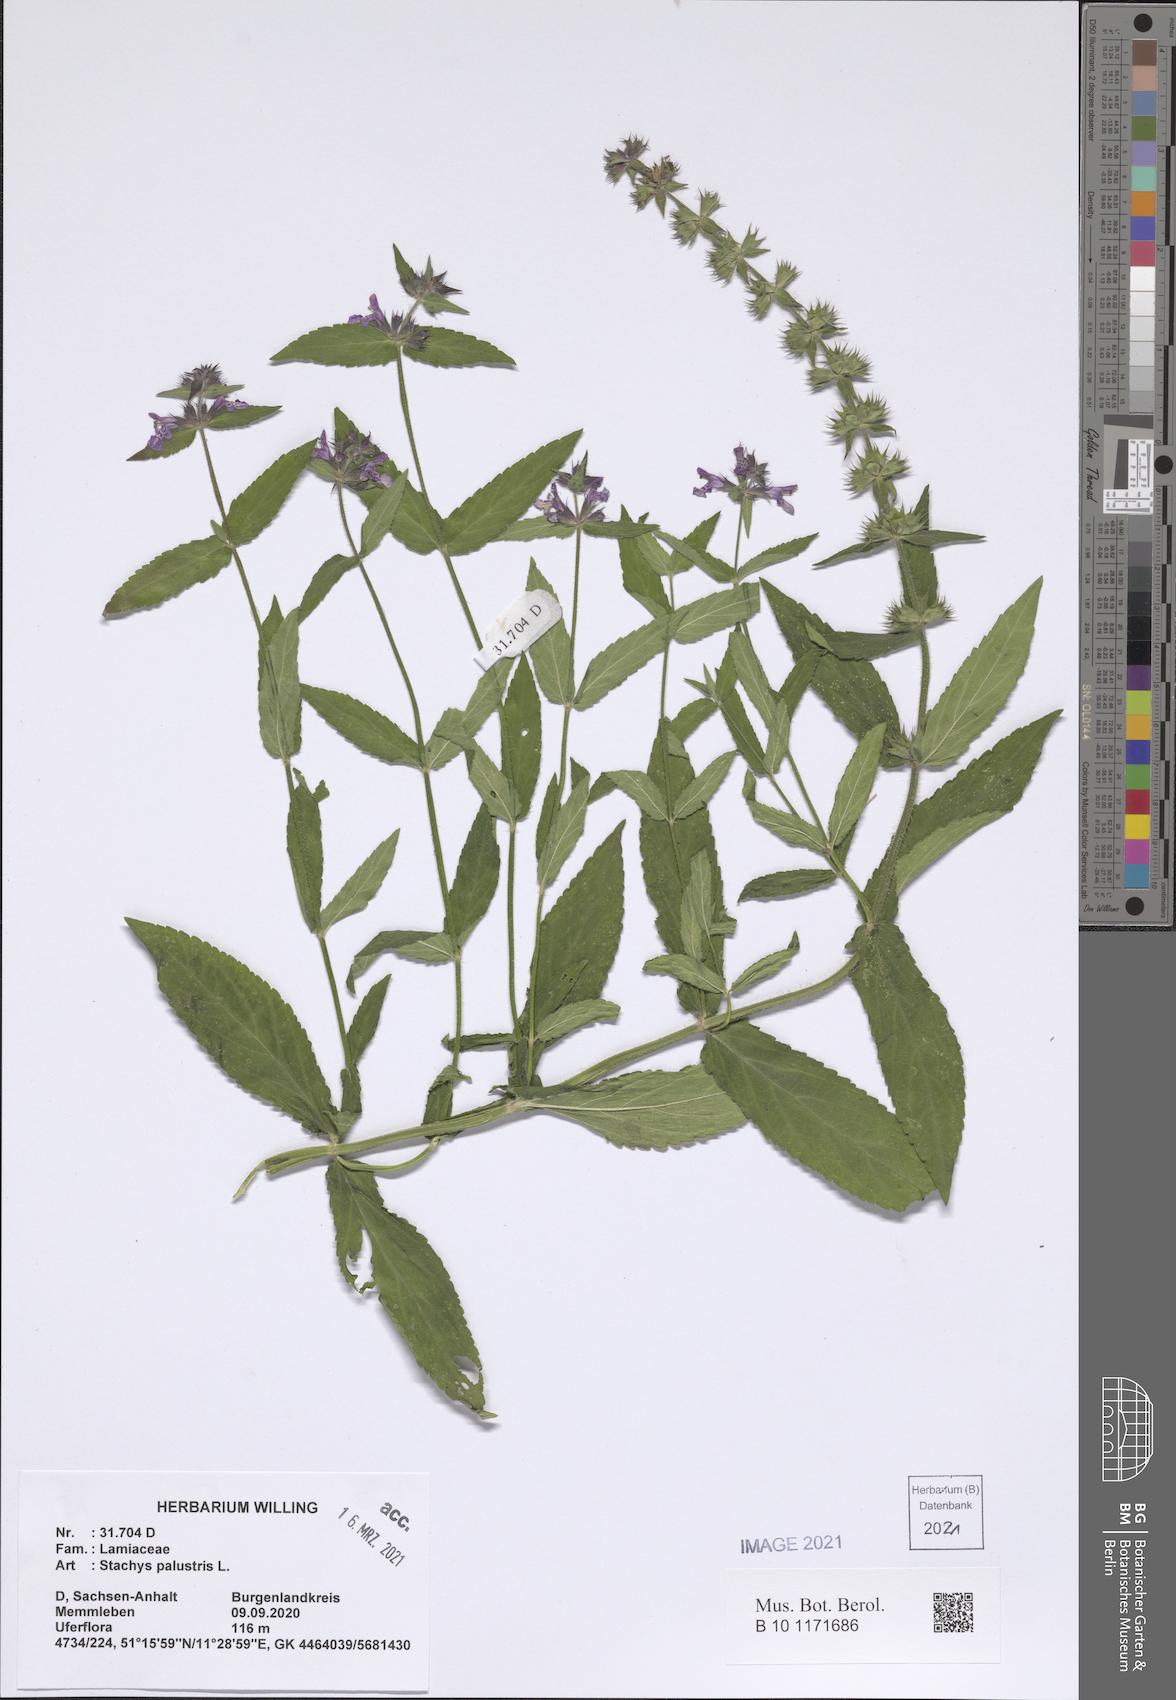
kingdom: Plantae
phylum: Tracheophyta
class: Magnoliopsida
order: Lamiales
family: Lamiaceae
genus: Stachys
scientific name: Stachys palustris
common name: Marsh woundwort
